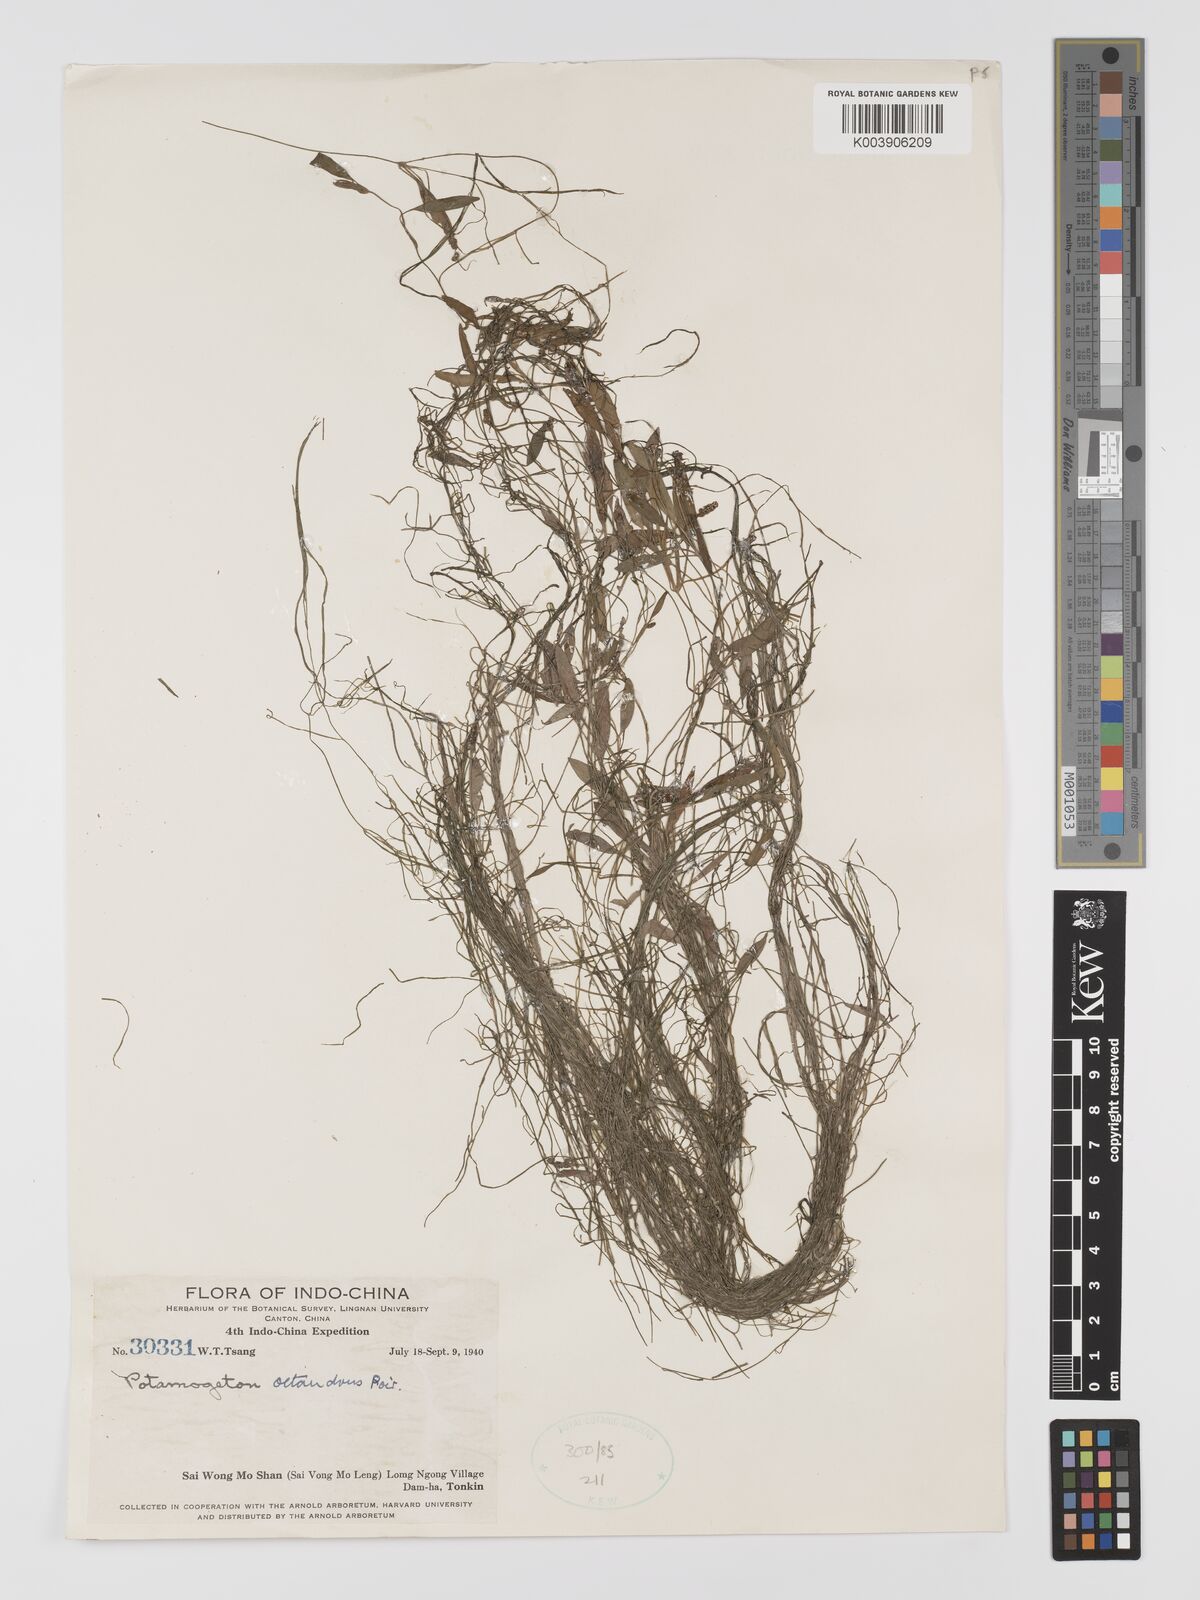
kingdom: Plantae
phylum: Tracheophyta
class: Liliopsida
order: Alismatales
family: Potamogetonaceae
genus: Potamogeton
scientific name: Potamogeton octandrus
